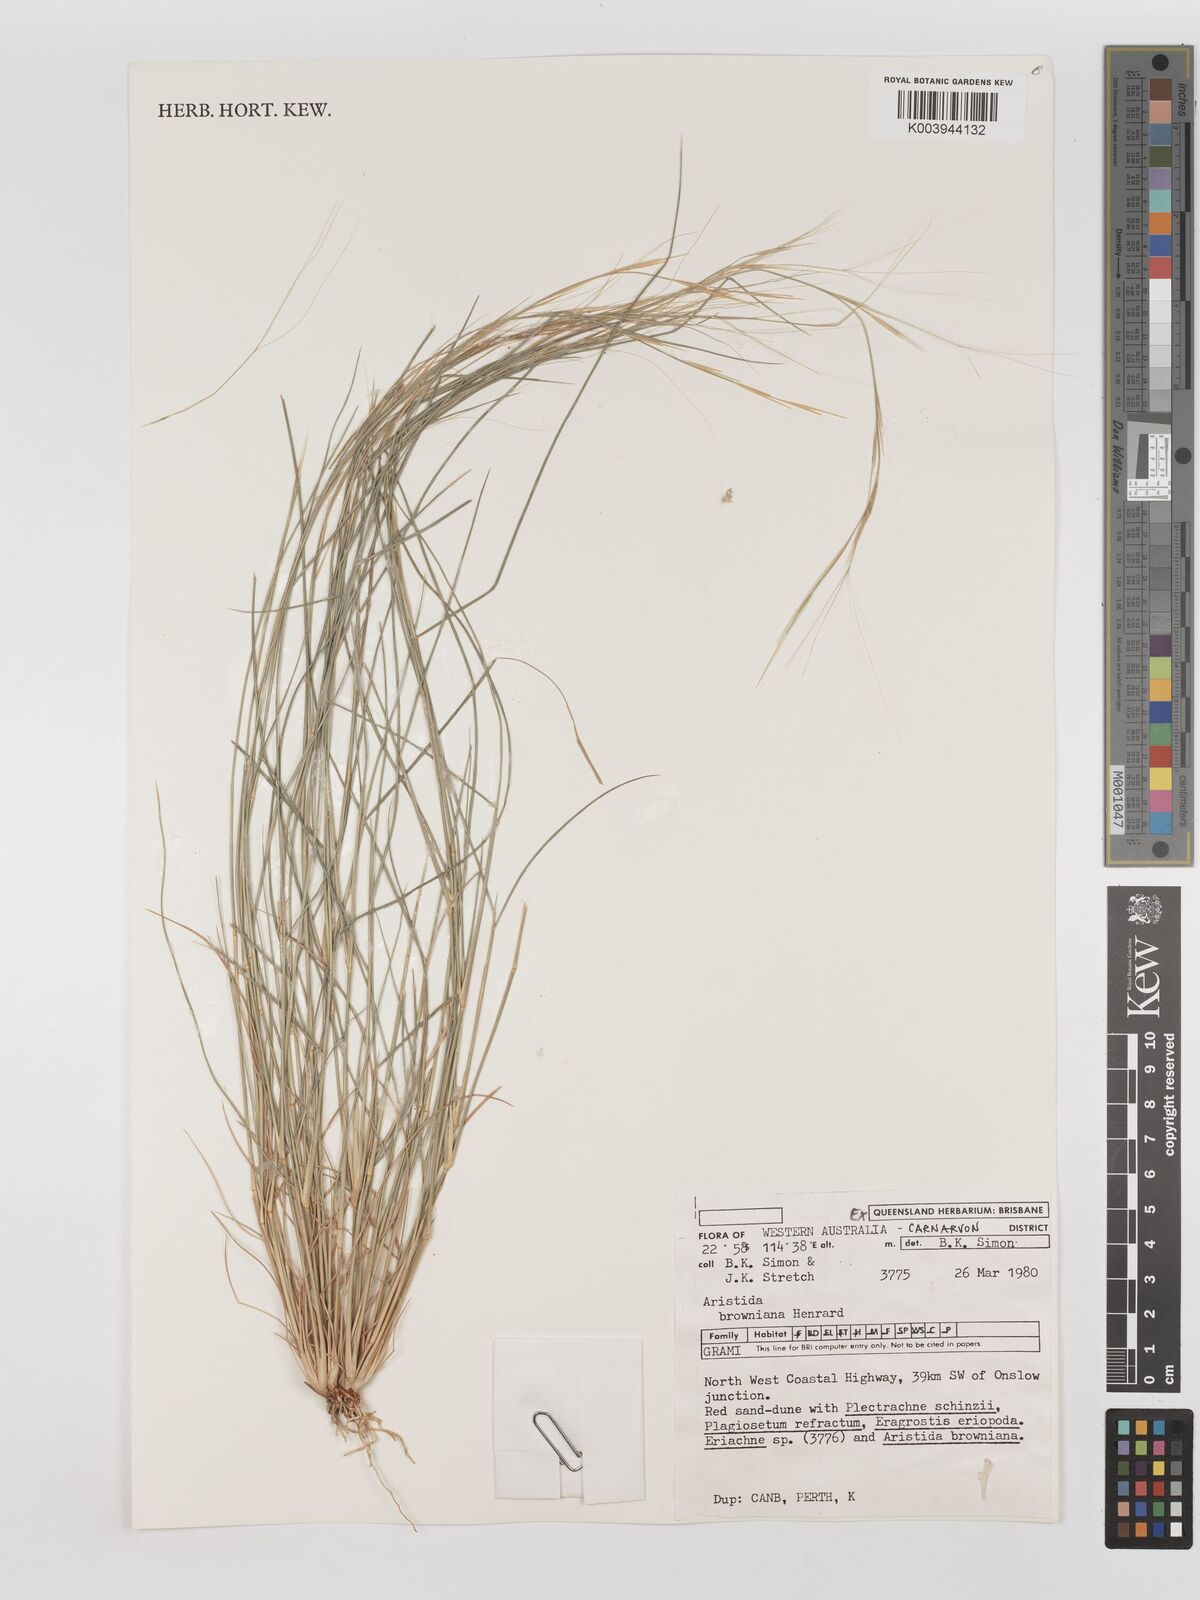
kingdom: Plantae
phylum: Tracheophyta
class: Liliopsida
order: Poales
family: Poaceae
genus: Aristida
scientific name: Aristida holathera
